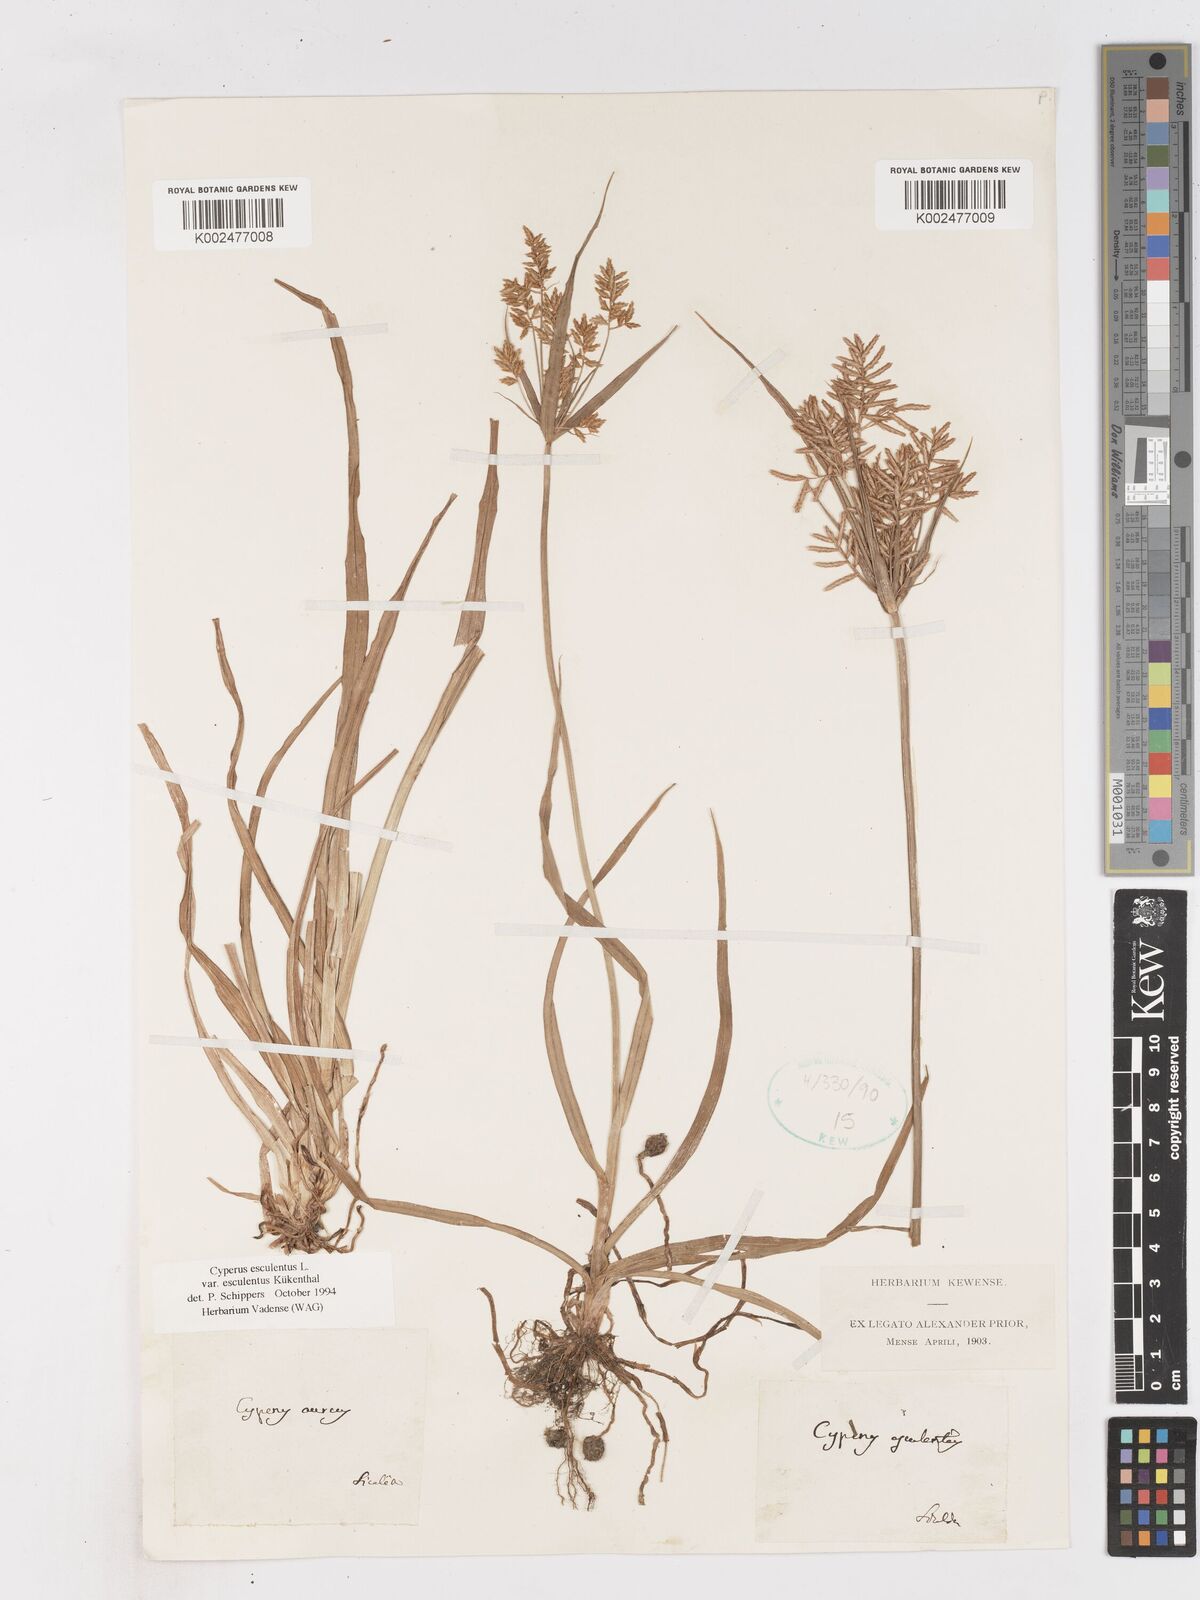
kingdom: Plantae
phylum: Tracheophyta
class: Liliopsida
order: Poales
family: Cyperaceae
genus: Cyperus
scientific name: Cyperus esculentus
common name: Yellow nutsedge
